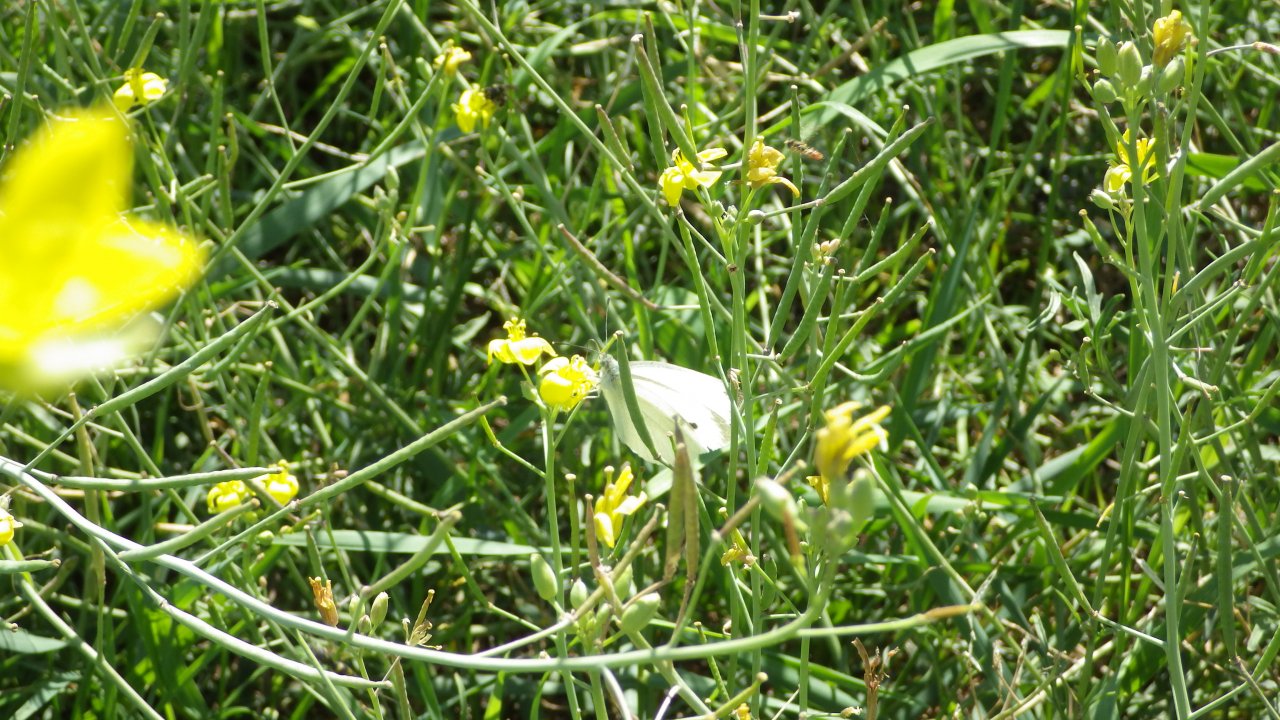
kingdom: Animalia
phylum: Arthropoda
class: Insecta
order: Lepidoptera
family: Pieridae
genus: Pieris
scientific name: Pieris rapae
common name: Cabbage White
